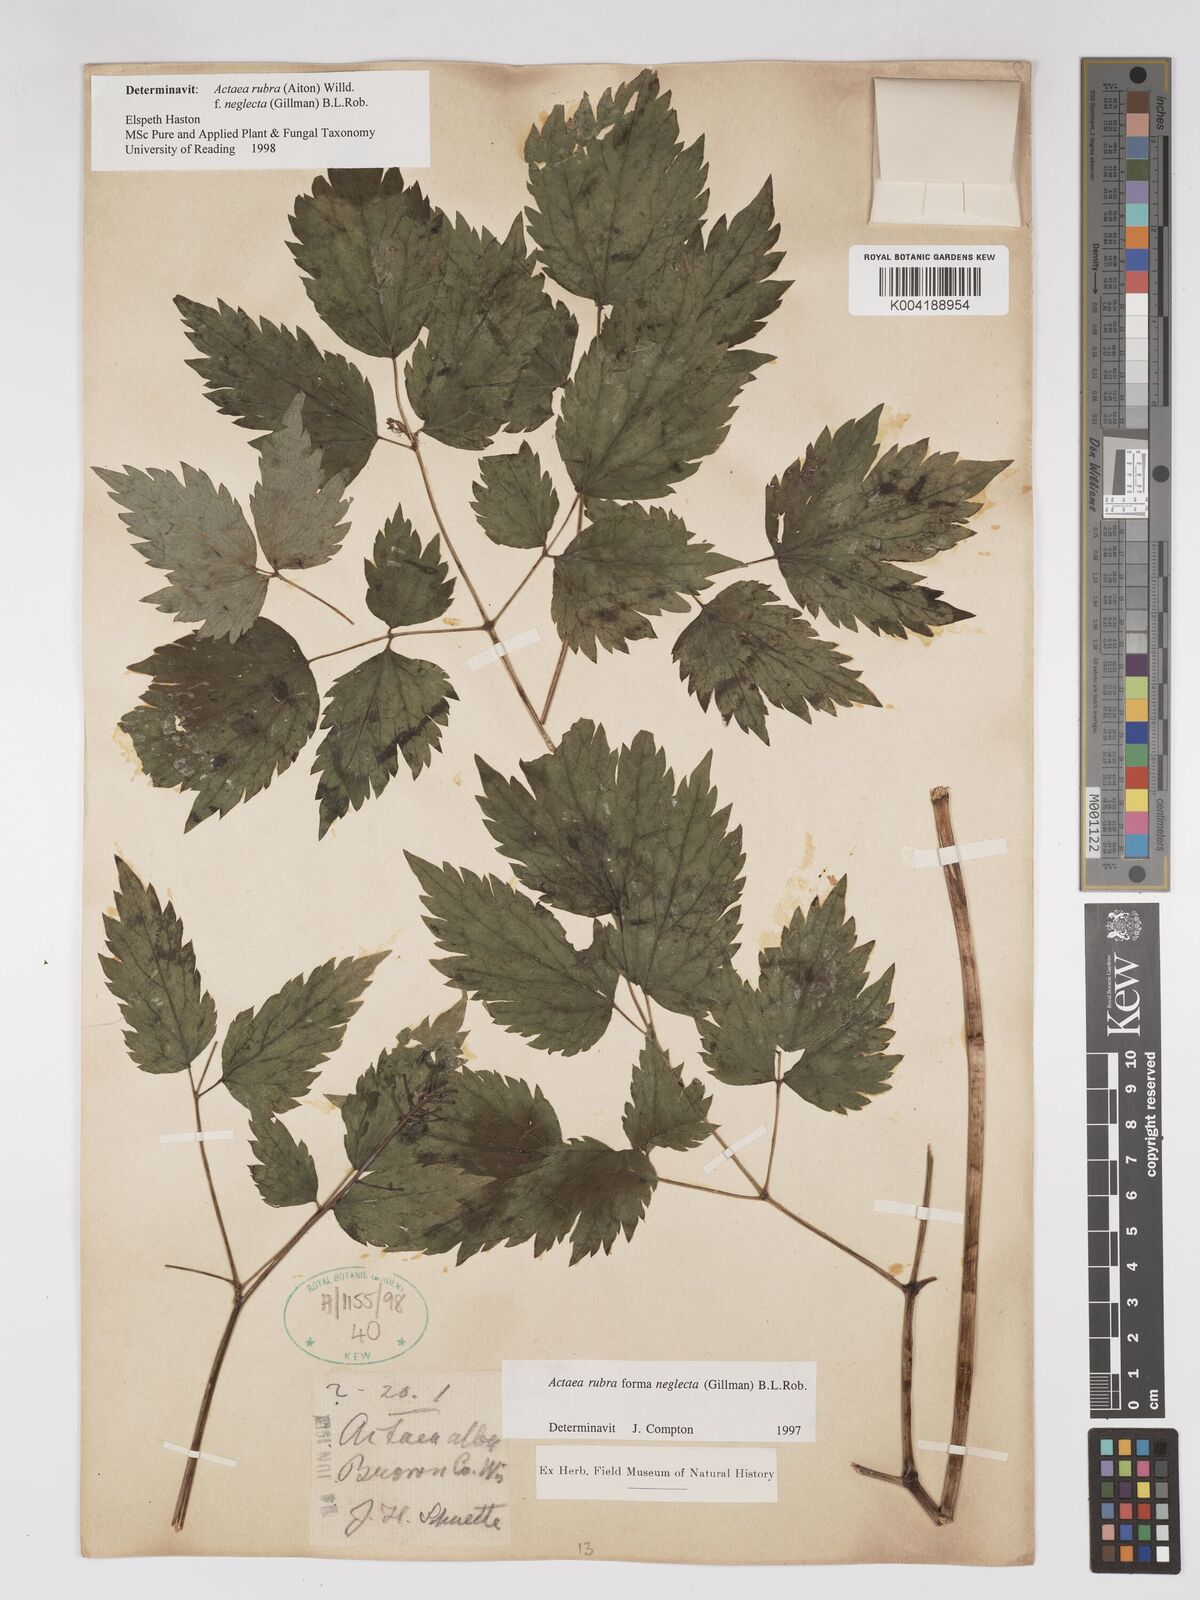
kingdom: Plantae
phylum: Tracheophyta
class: Magnoliopsida
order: Ranunculales
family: Ranunculaceae
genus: Actaea
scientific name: Actaea rubra
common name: Red baneberry
